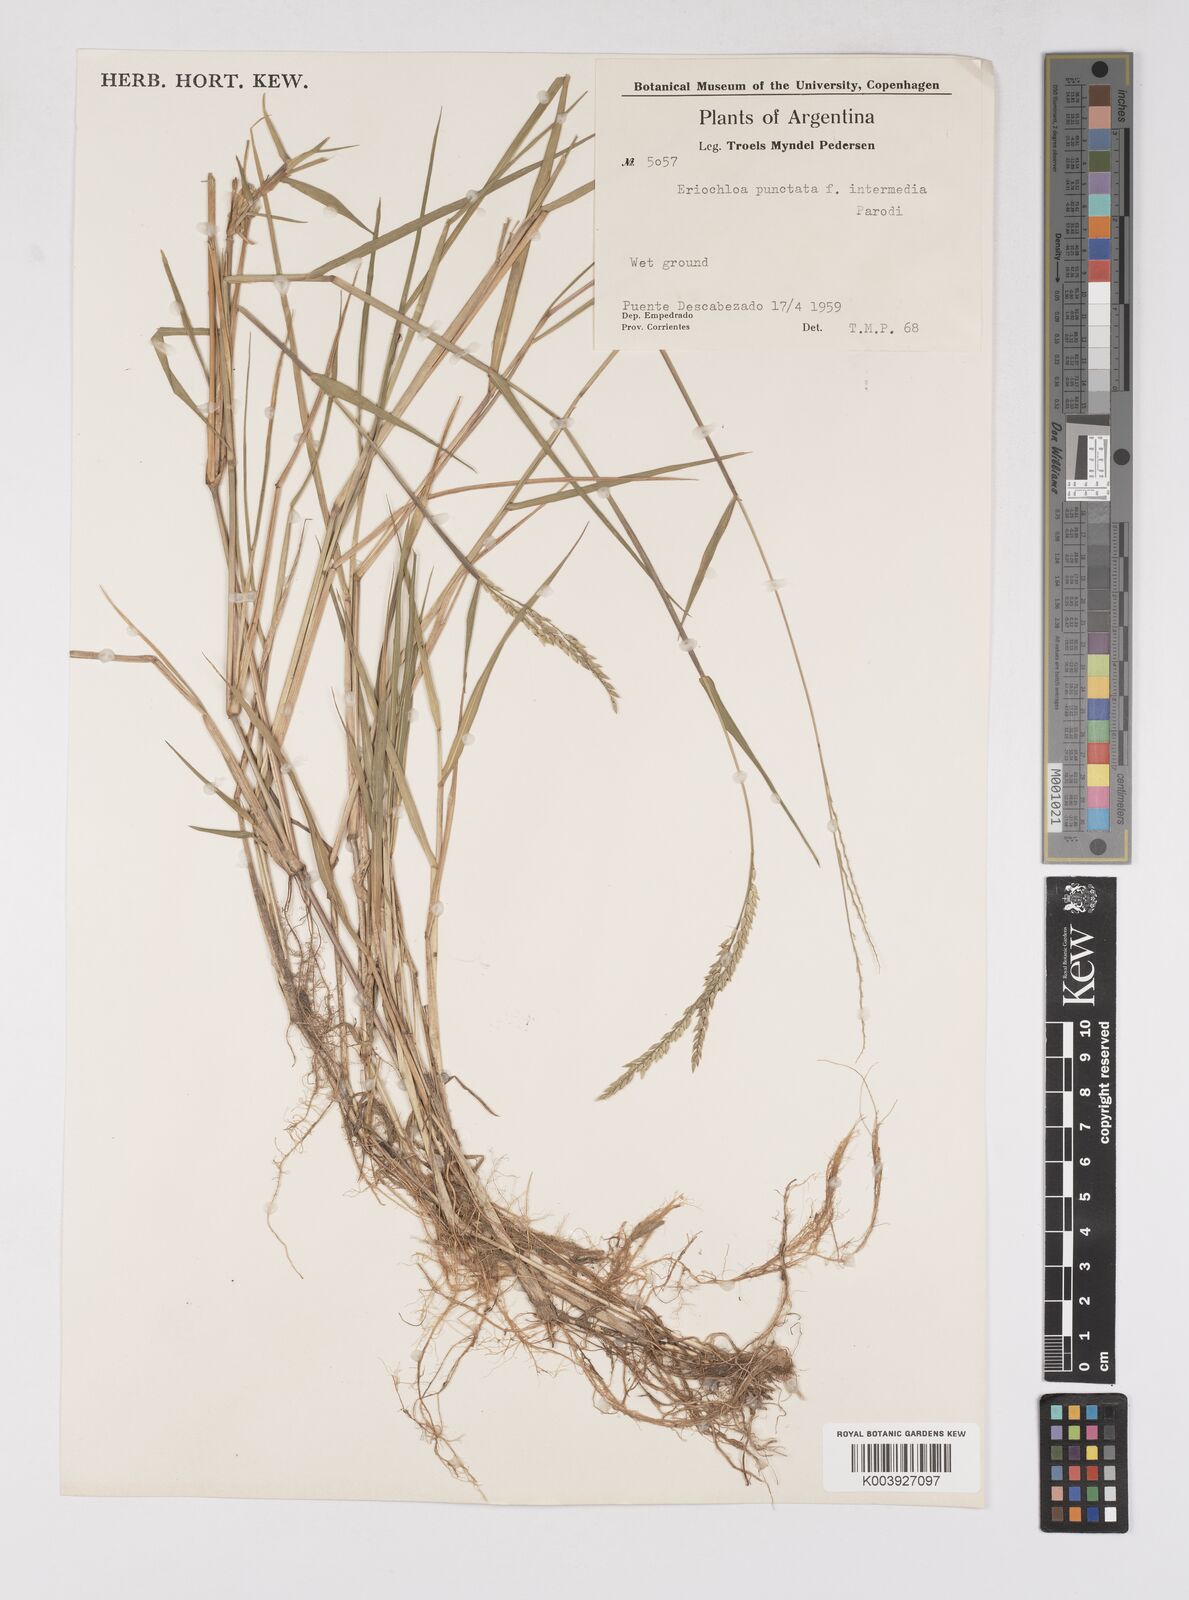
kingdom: Plantae
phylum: Tracheophyta
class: Liliopsida
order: Poales
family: Poaceae
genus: Eriochloa
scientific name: Eriochloa punctata
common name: Louisiana cupgrass
